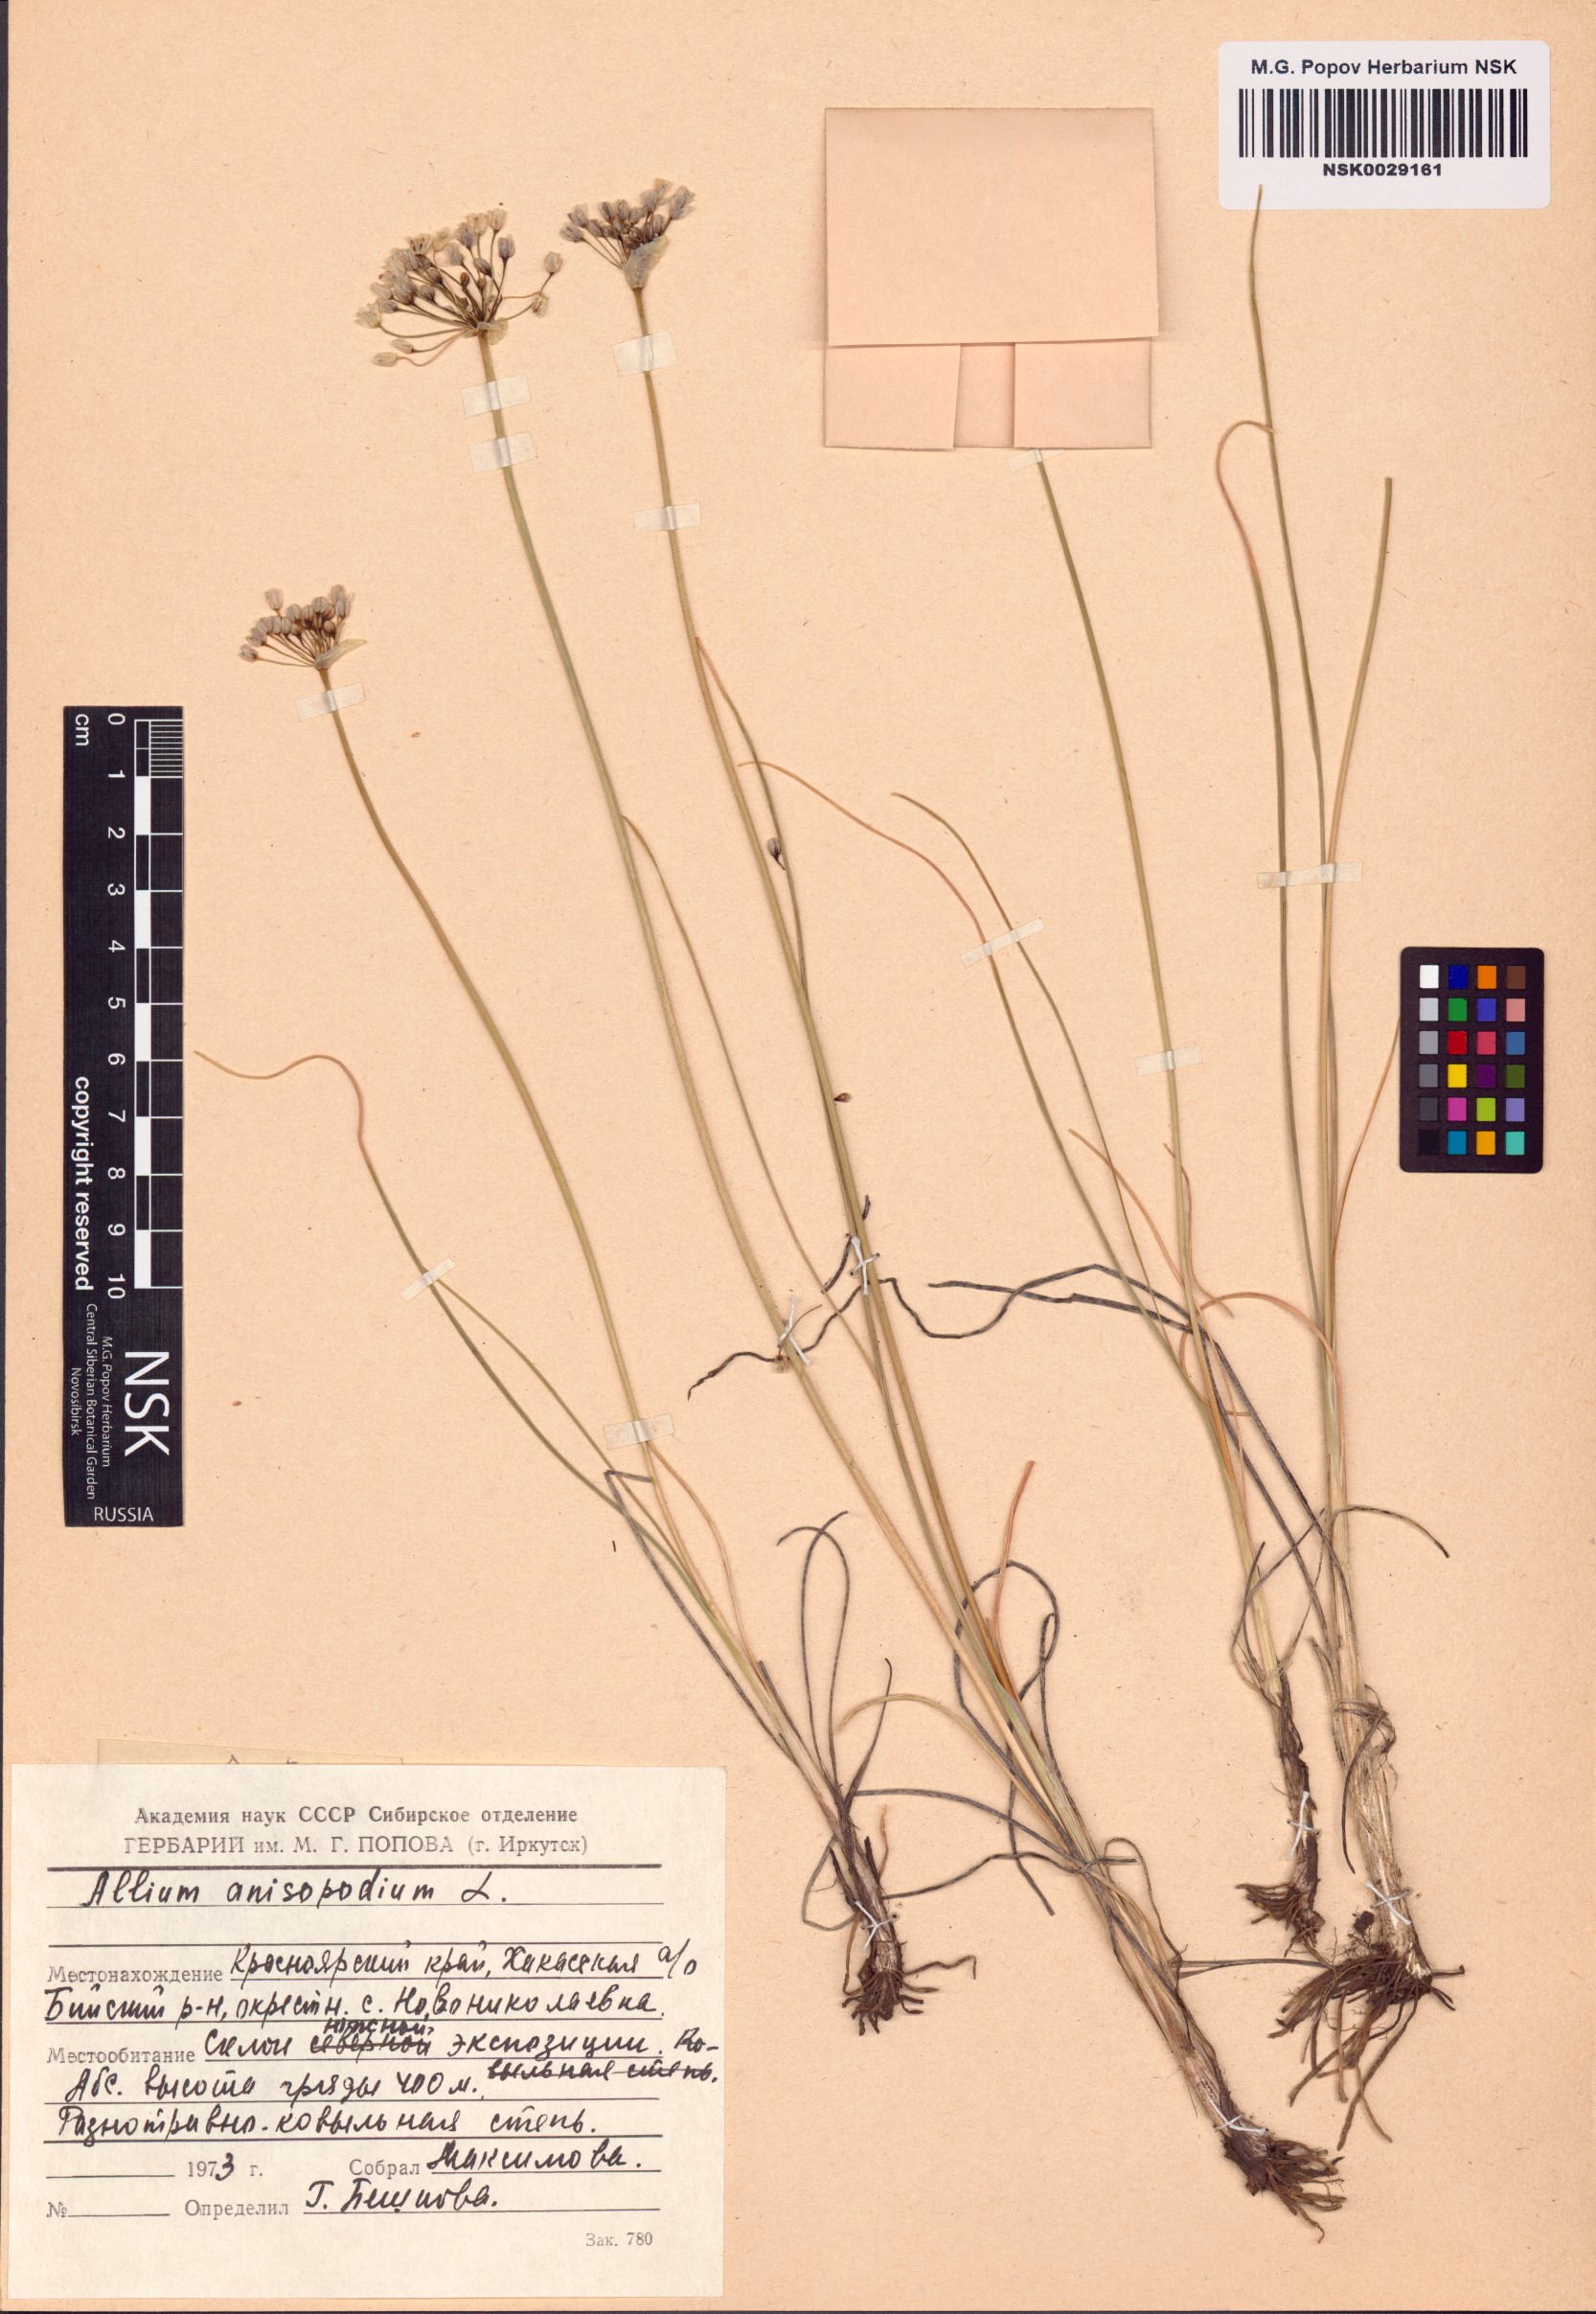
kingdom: Plantae
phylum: Tracheophyta
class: Liliopsida
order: Asparagales
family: Amaryllidaceae
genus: Allium
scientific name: Allium anisopodium
